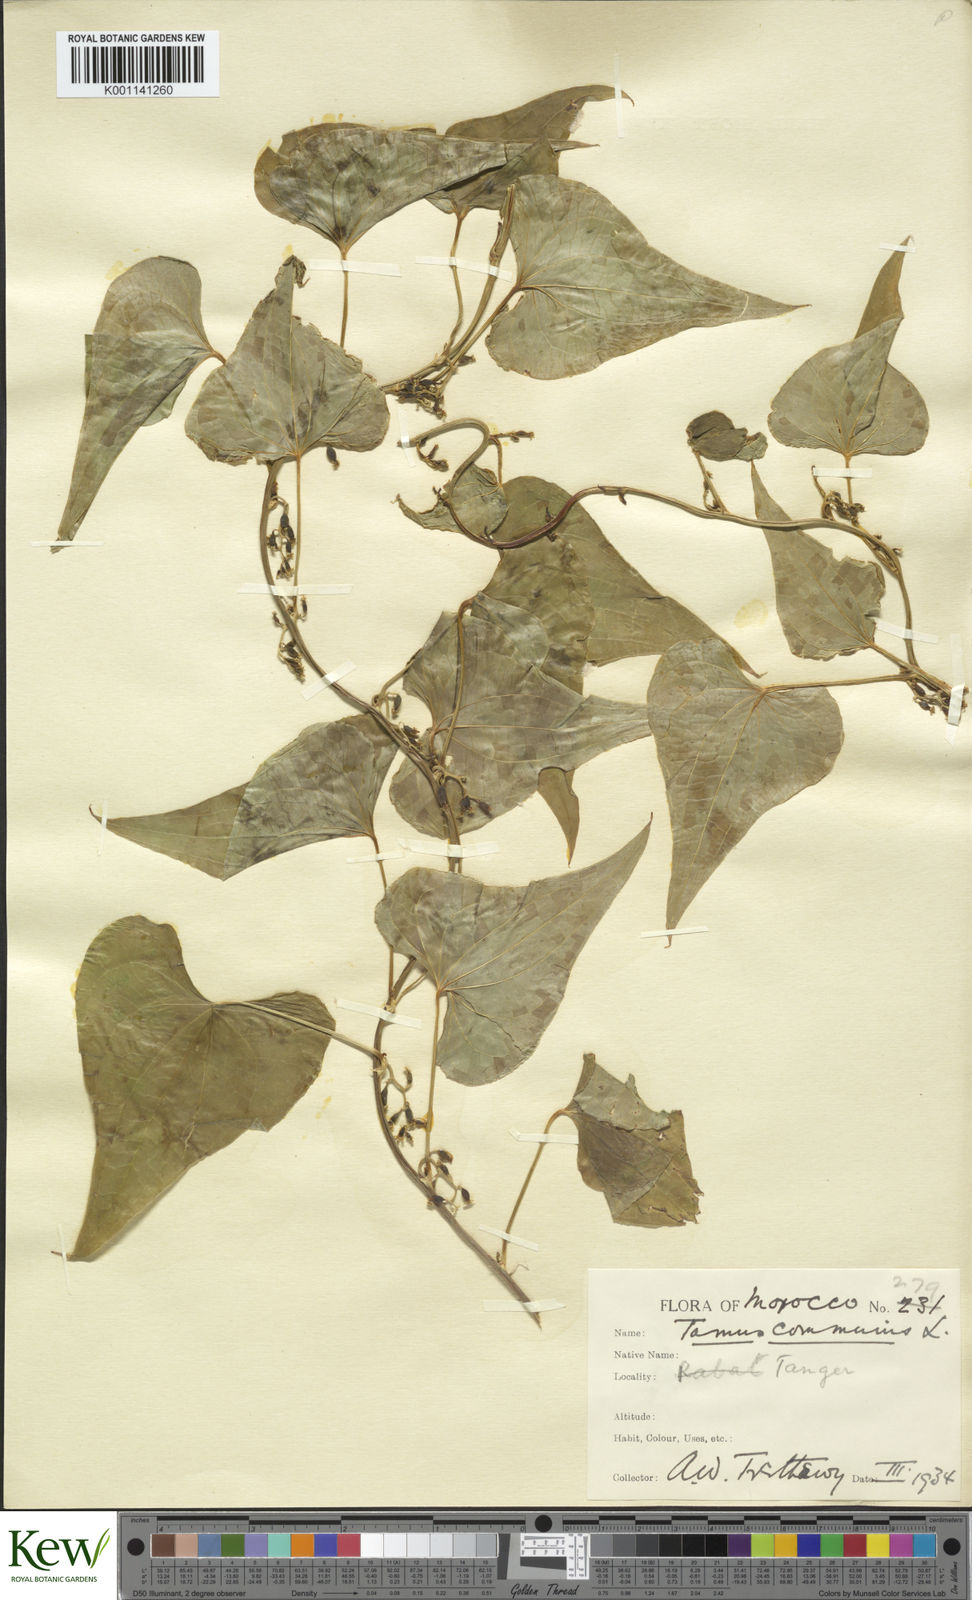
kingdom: Plantae
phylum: Tracheophyta
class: Liliopsida
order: Dioscoreales
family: Dioscoreaceae
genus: Dioscorea
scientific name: Dioscorea communis
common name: Black-bindweed
